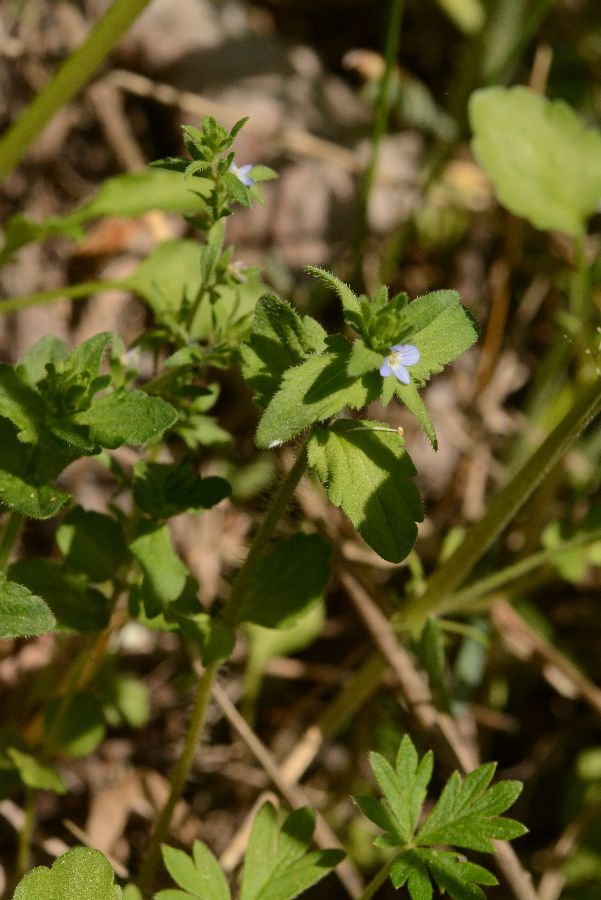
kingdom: Plantae
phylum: Tracheophyta
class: Magnoliopsida
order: Lamiales
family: Plantaginaceae
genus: Veronica
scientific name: Veronica arvensis
